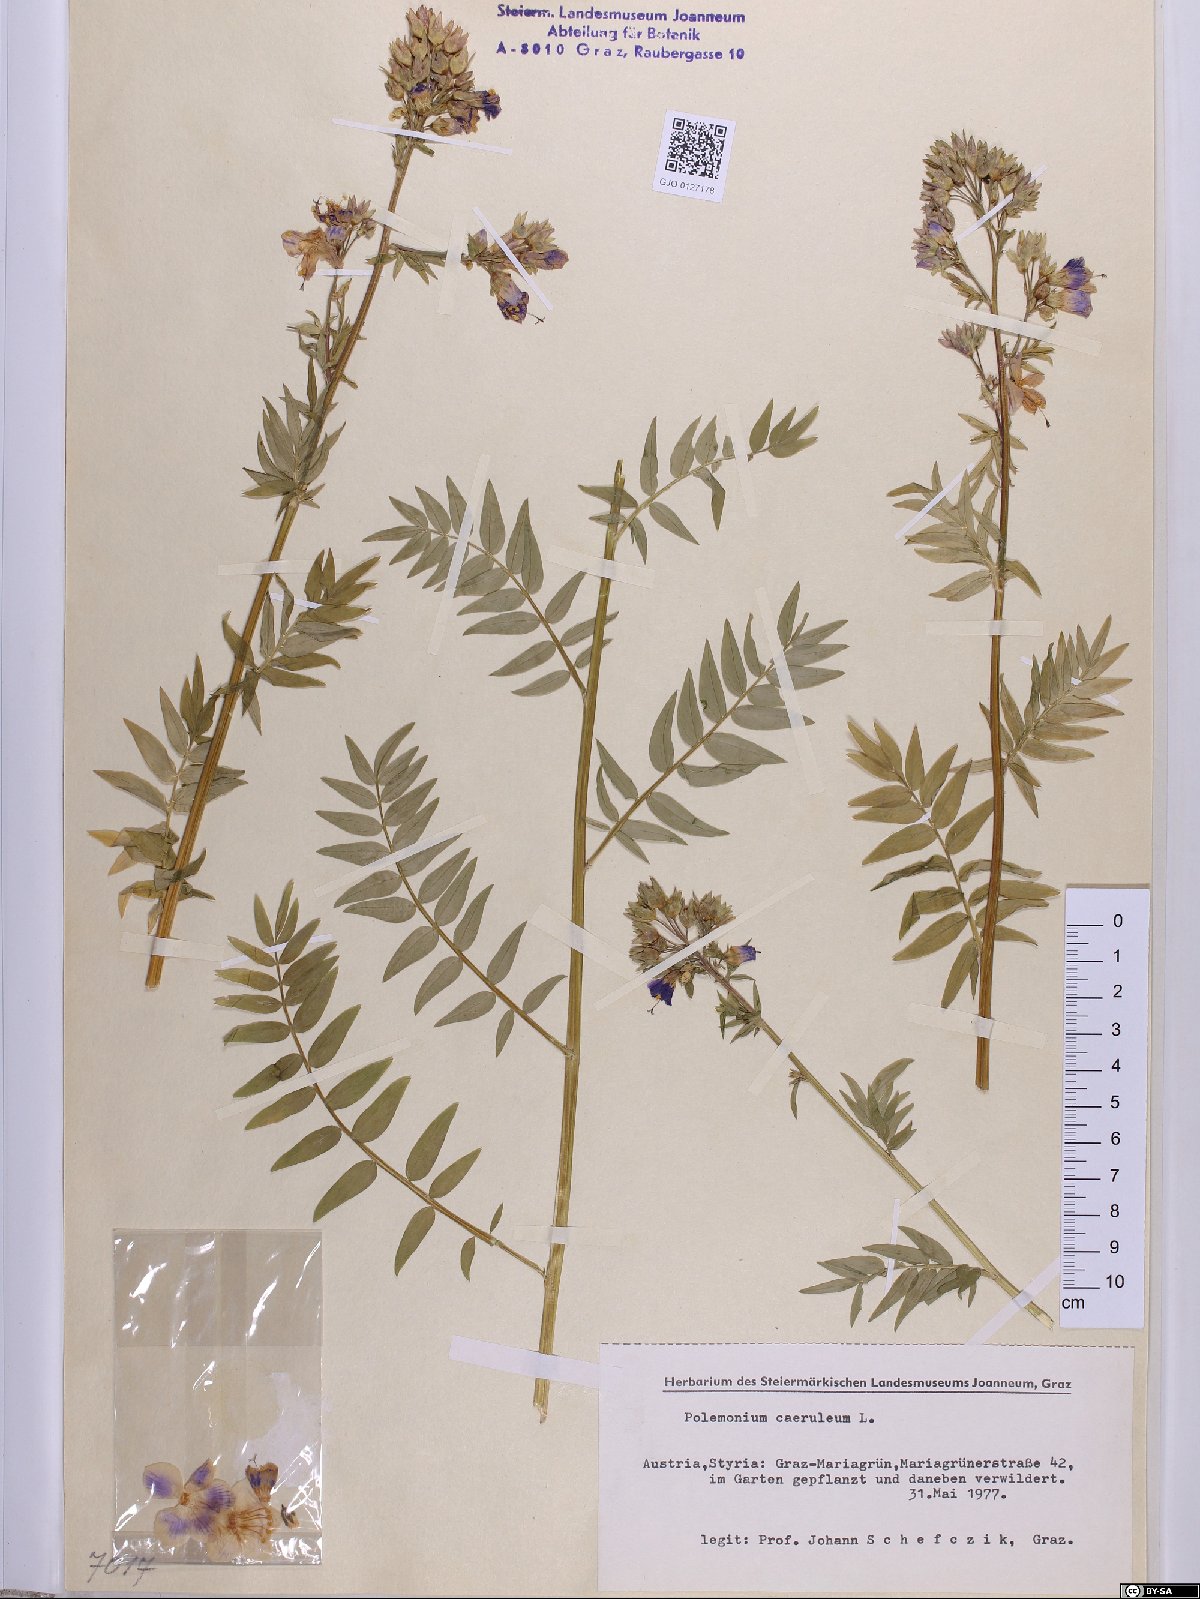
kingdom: Plantae
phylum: Tracheophyta
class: Magnoliopsida
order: Ericales
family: Polemoniaceae
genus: Polemonium
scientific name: Polemonium caeruleum
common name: Jacob's-ladder
